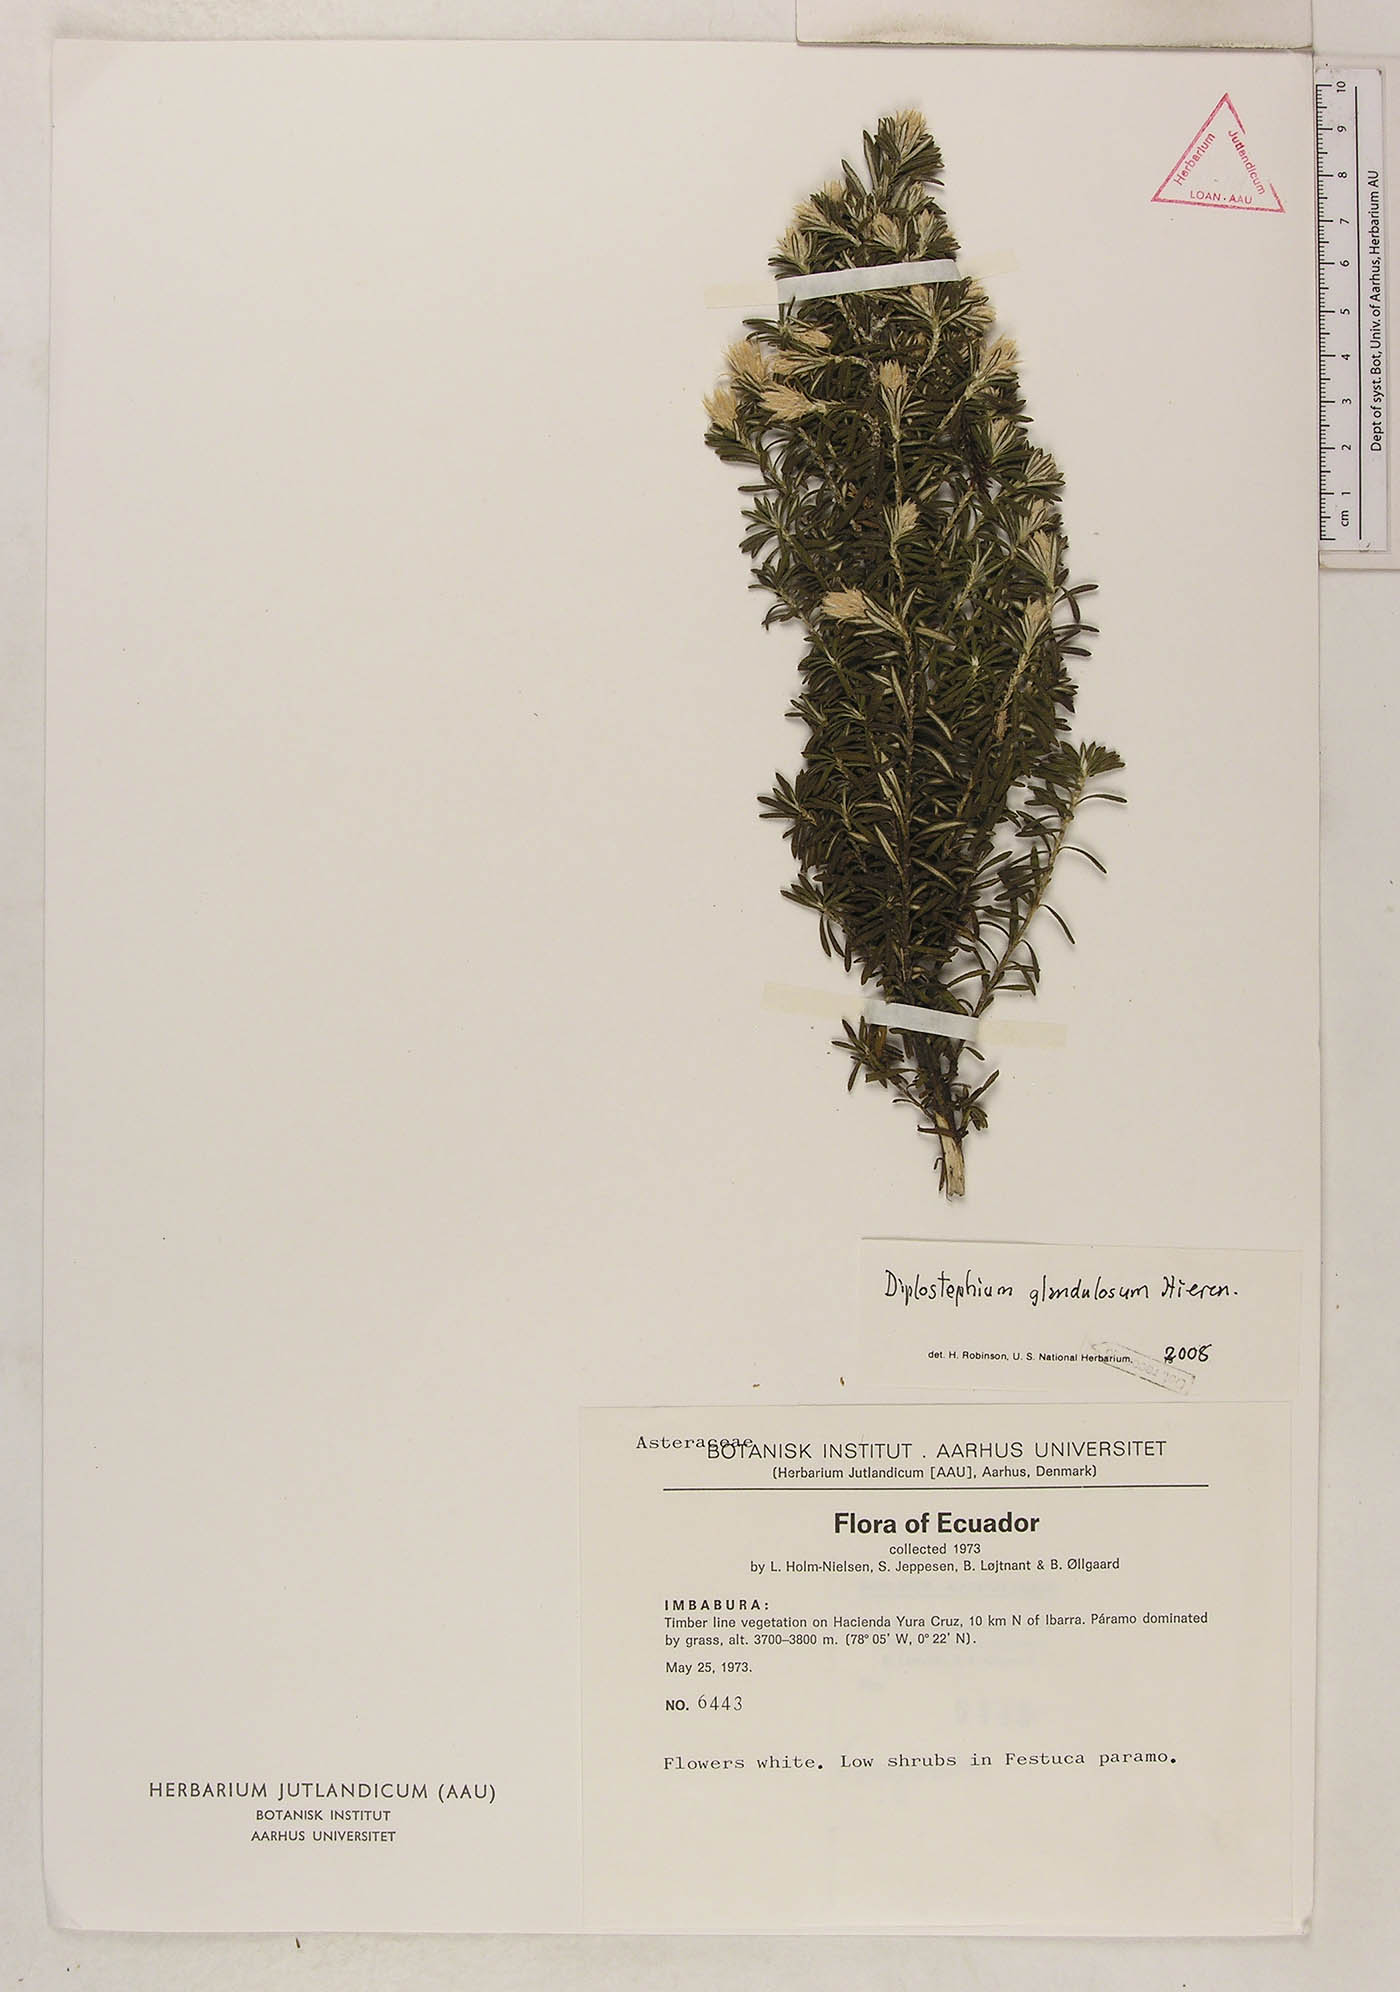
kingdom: Plantae
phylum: Tracheophyta
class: Magnoliopsida
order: Asterales
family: Asteraceae
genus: Diplostephium
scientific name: Diplostephium glandulosum
